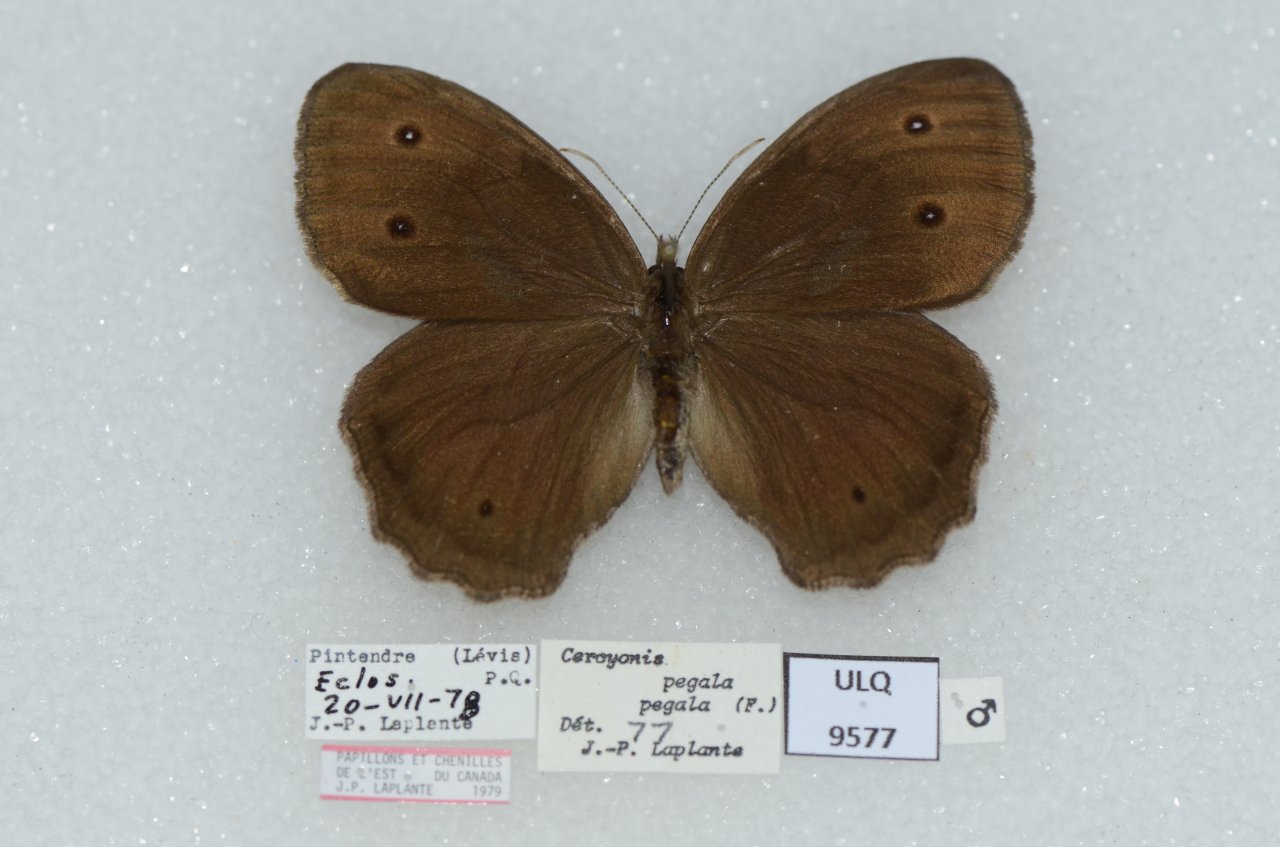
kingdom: Animalia
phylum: Arthropoda
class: Insecta
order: Lepidoptera
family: Nymphalidae
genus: Cercyonis
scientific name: Cercyonis pegala
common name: Common Wood-Nymph
